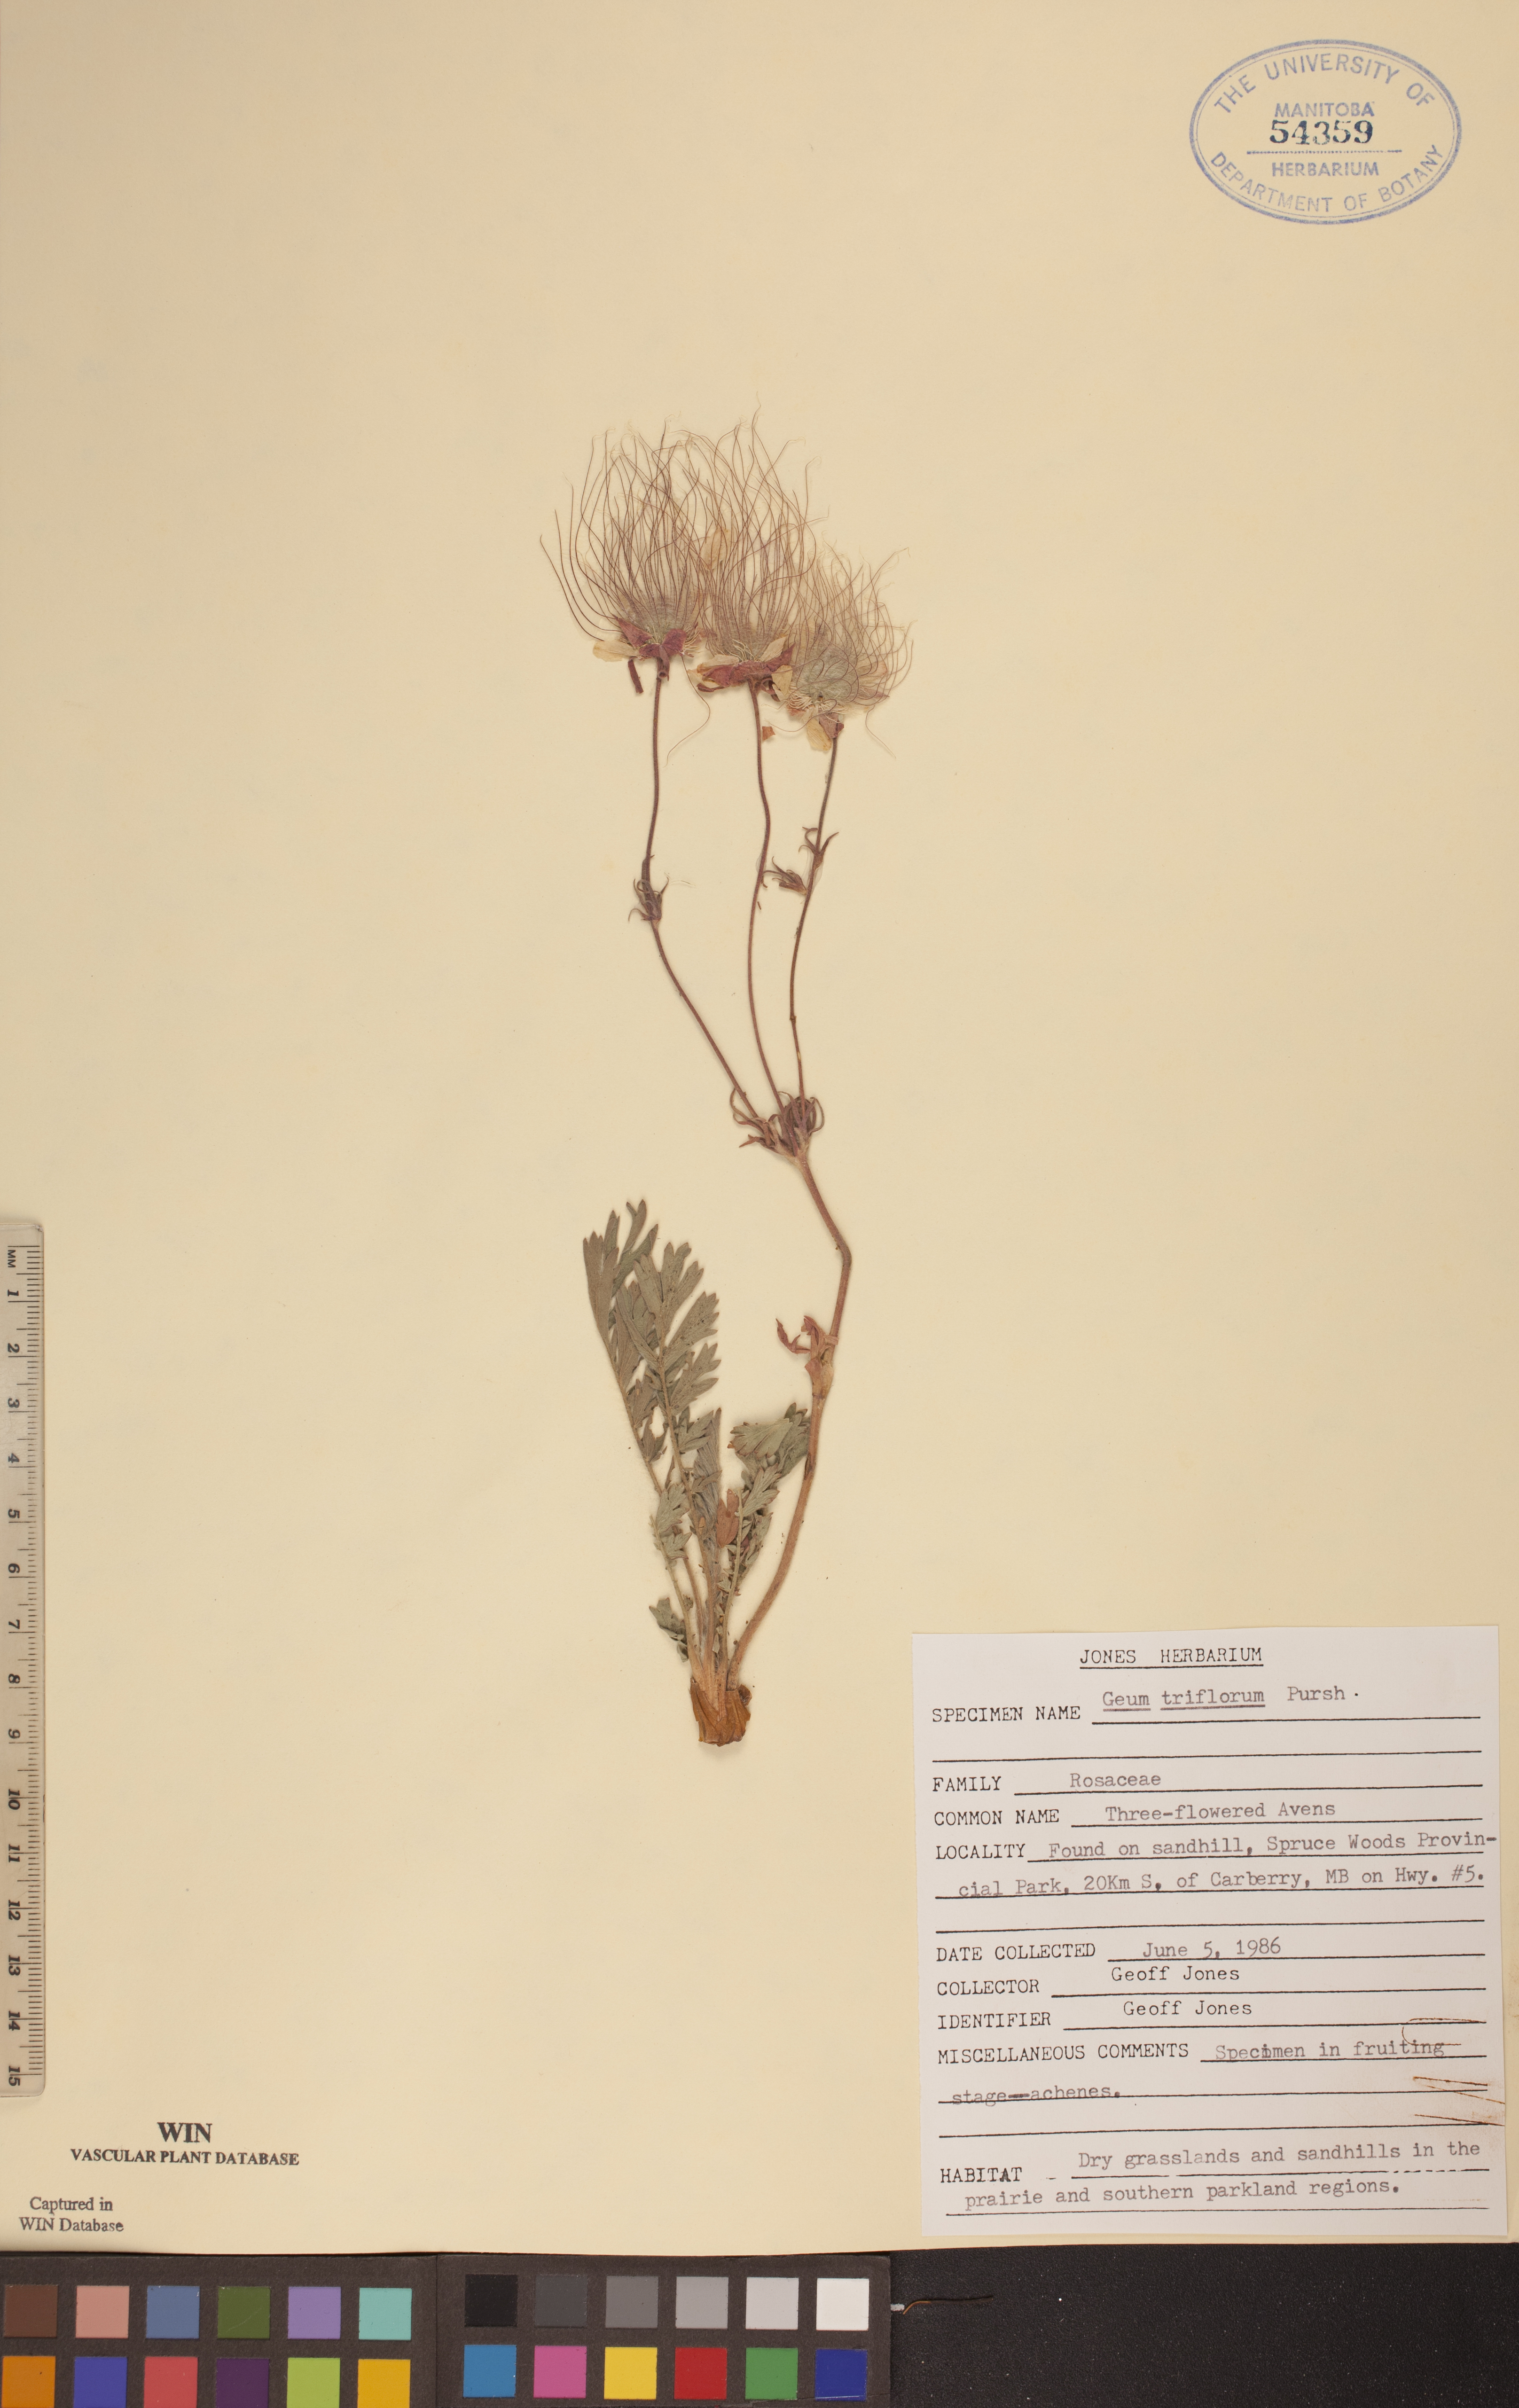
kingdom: Plantae
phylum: Tracheophyta
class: Magnoliopsida
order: Rosales
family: Rosaceae
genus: Geum
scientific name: Geum triflorum
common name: Old man's whiskers
